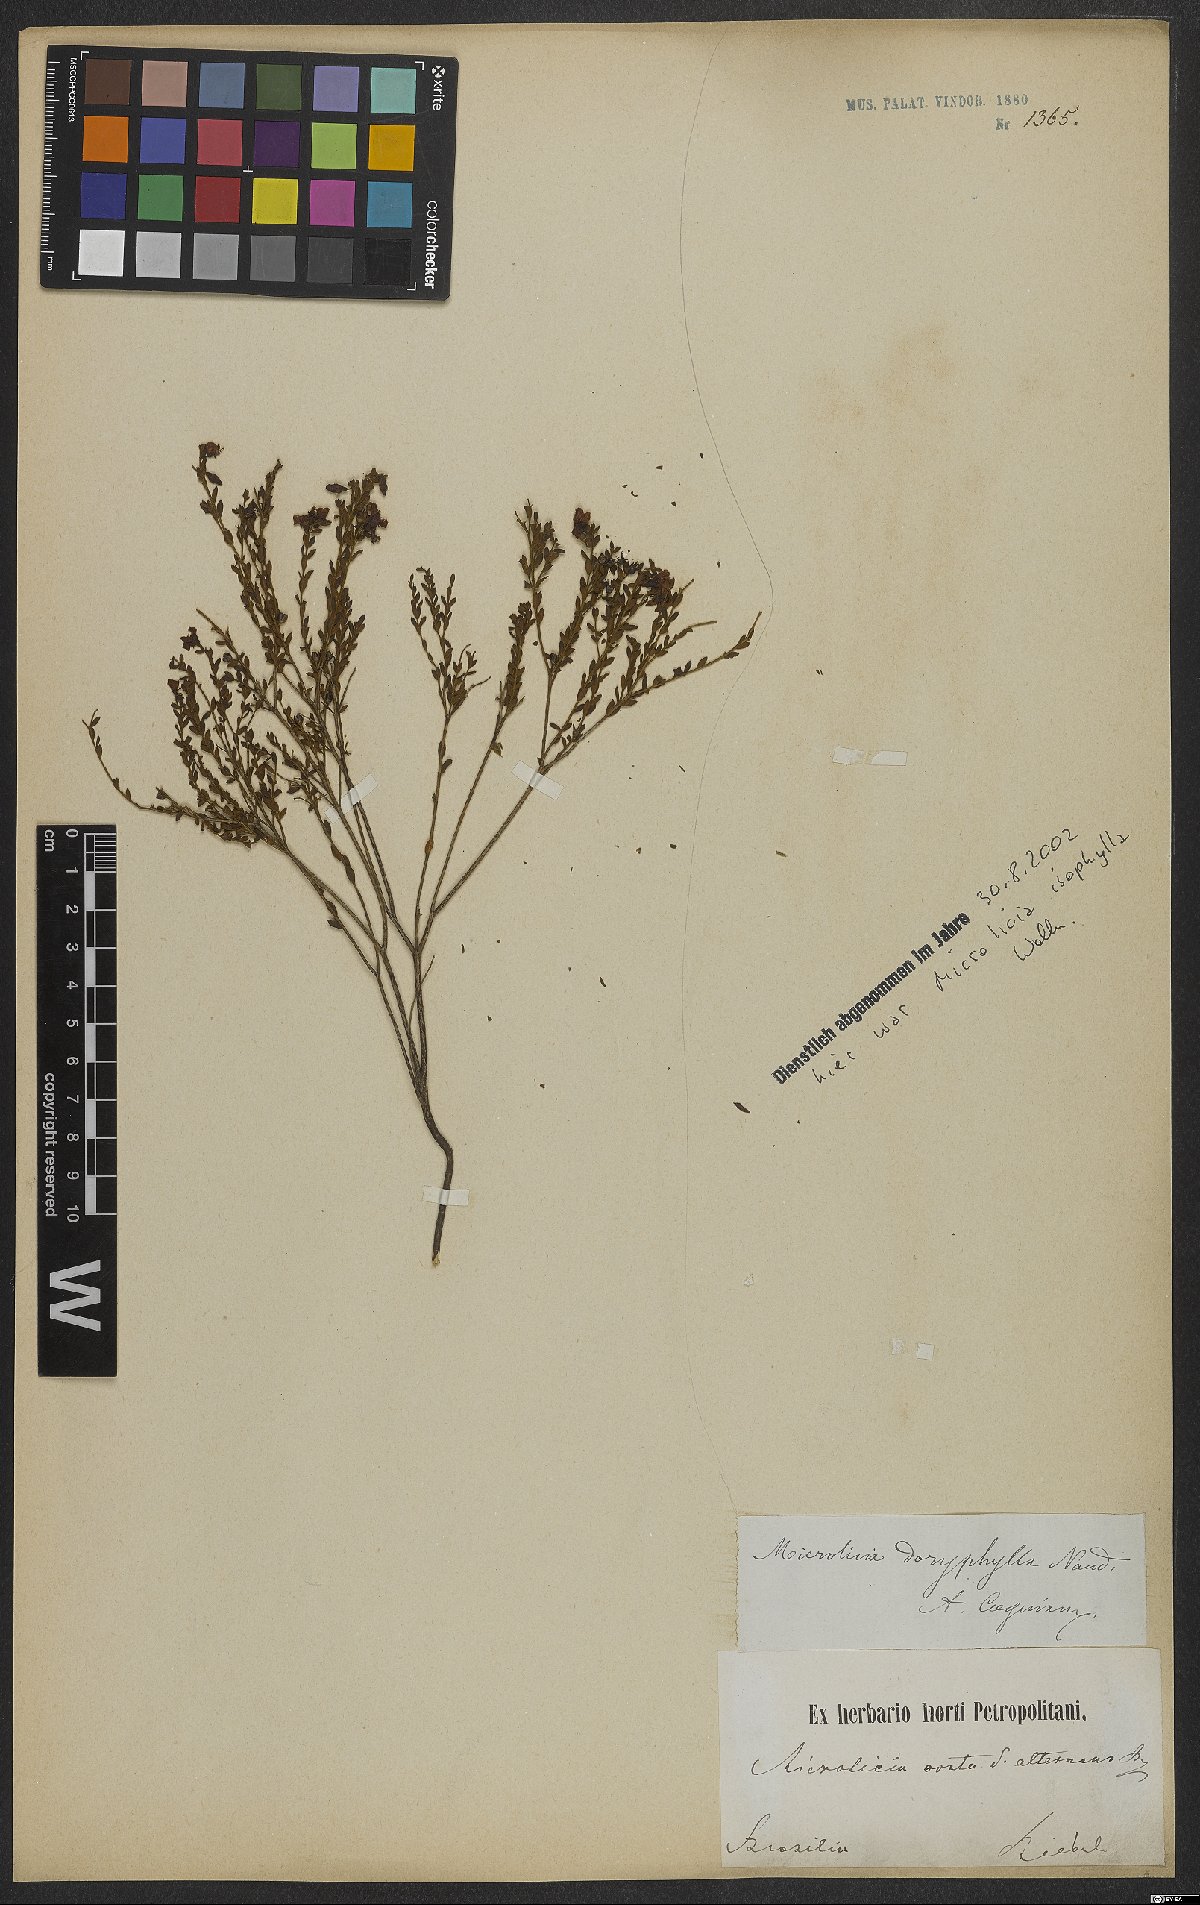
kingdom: Plantae
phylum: Tracheophyta
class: Magnoliopsida
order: Myrtales
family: Melastomataceae
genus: Microlicia
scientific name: Microlicia doryphylla
